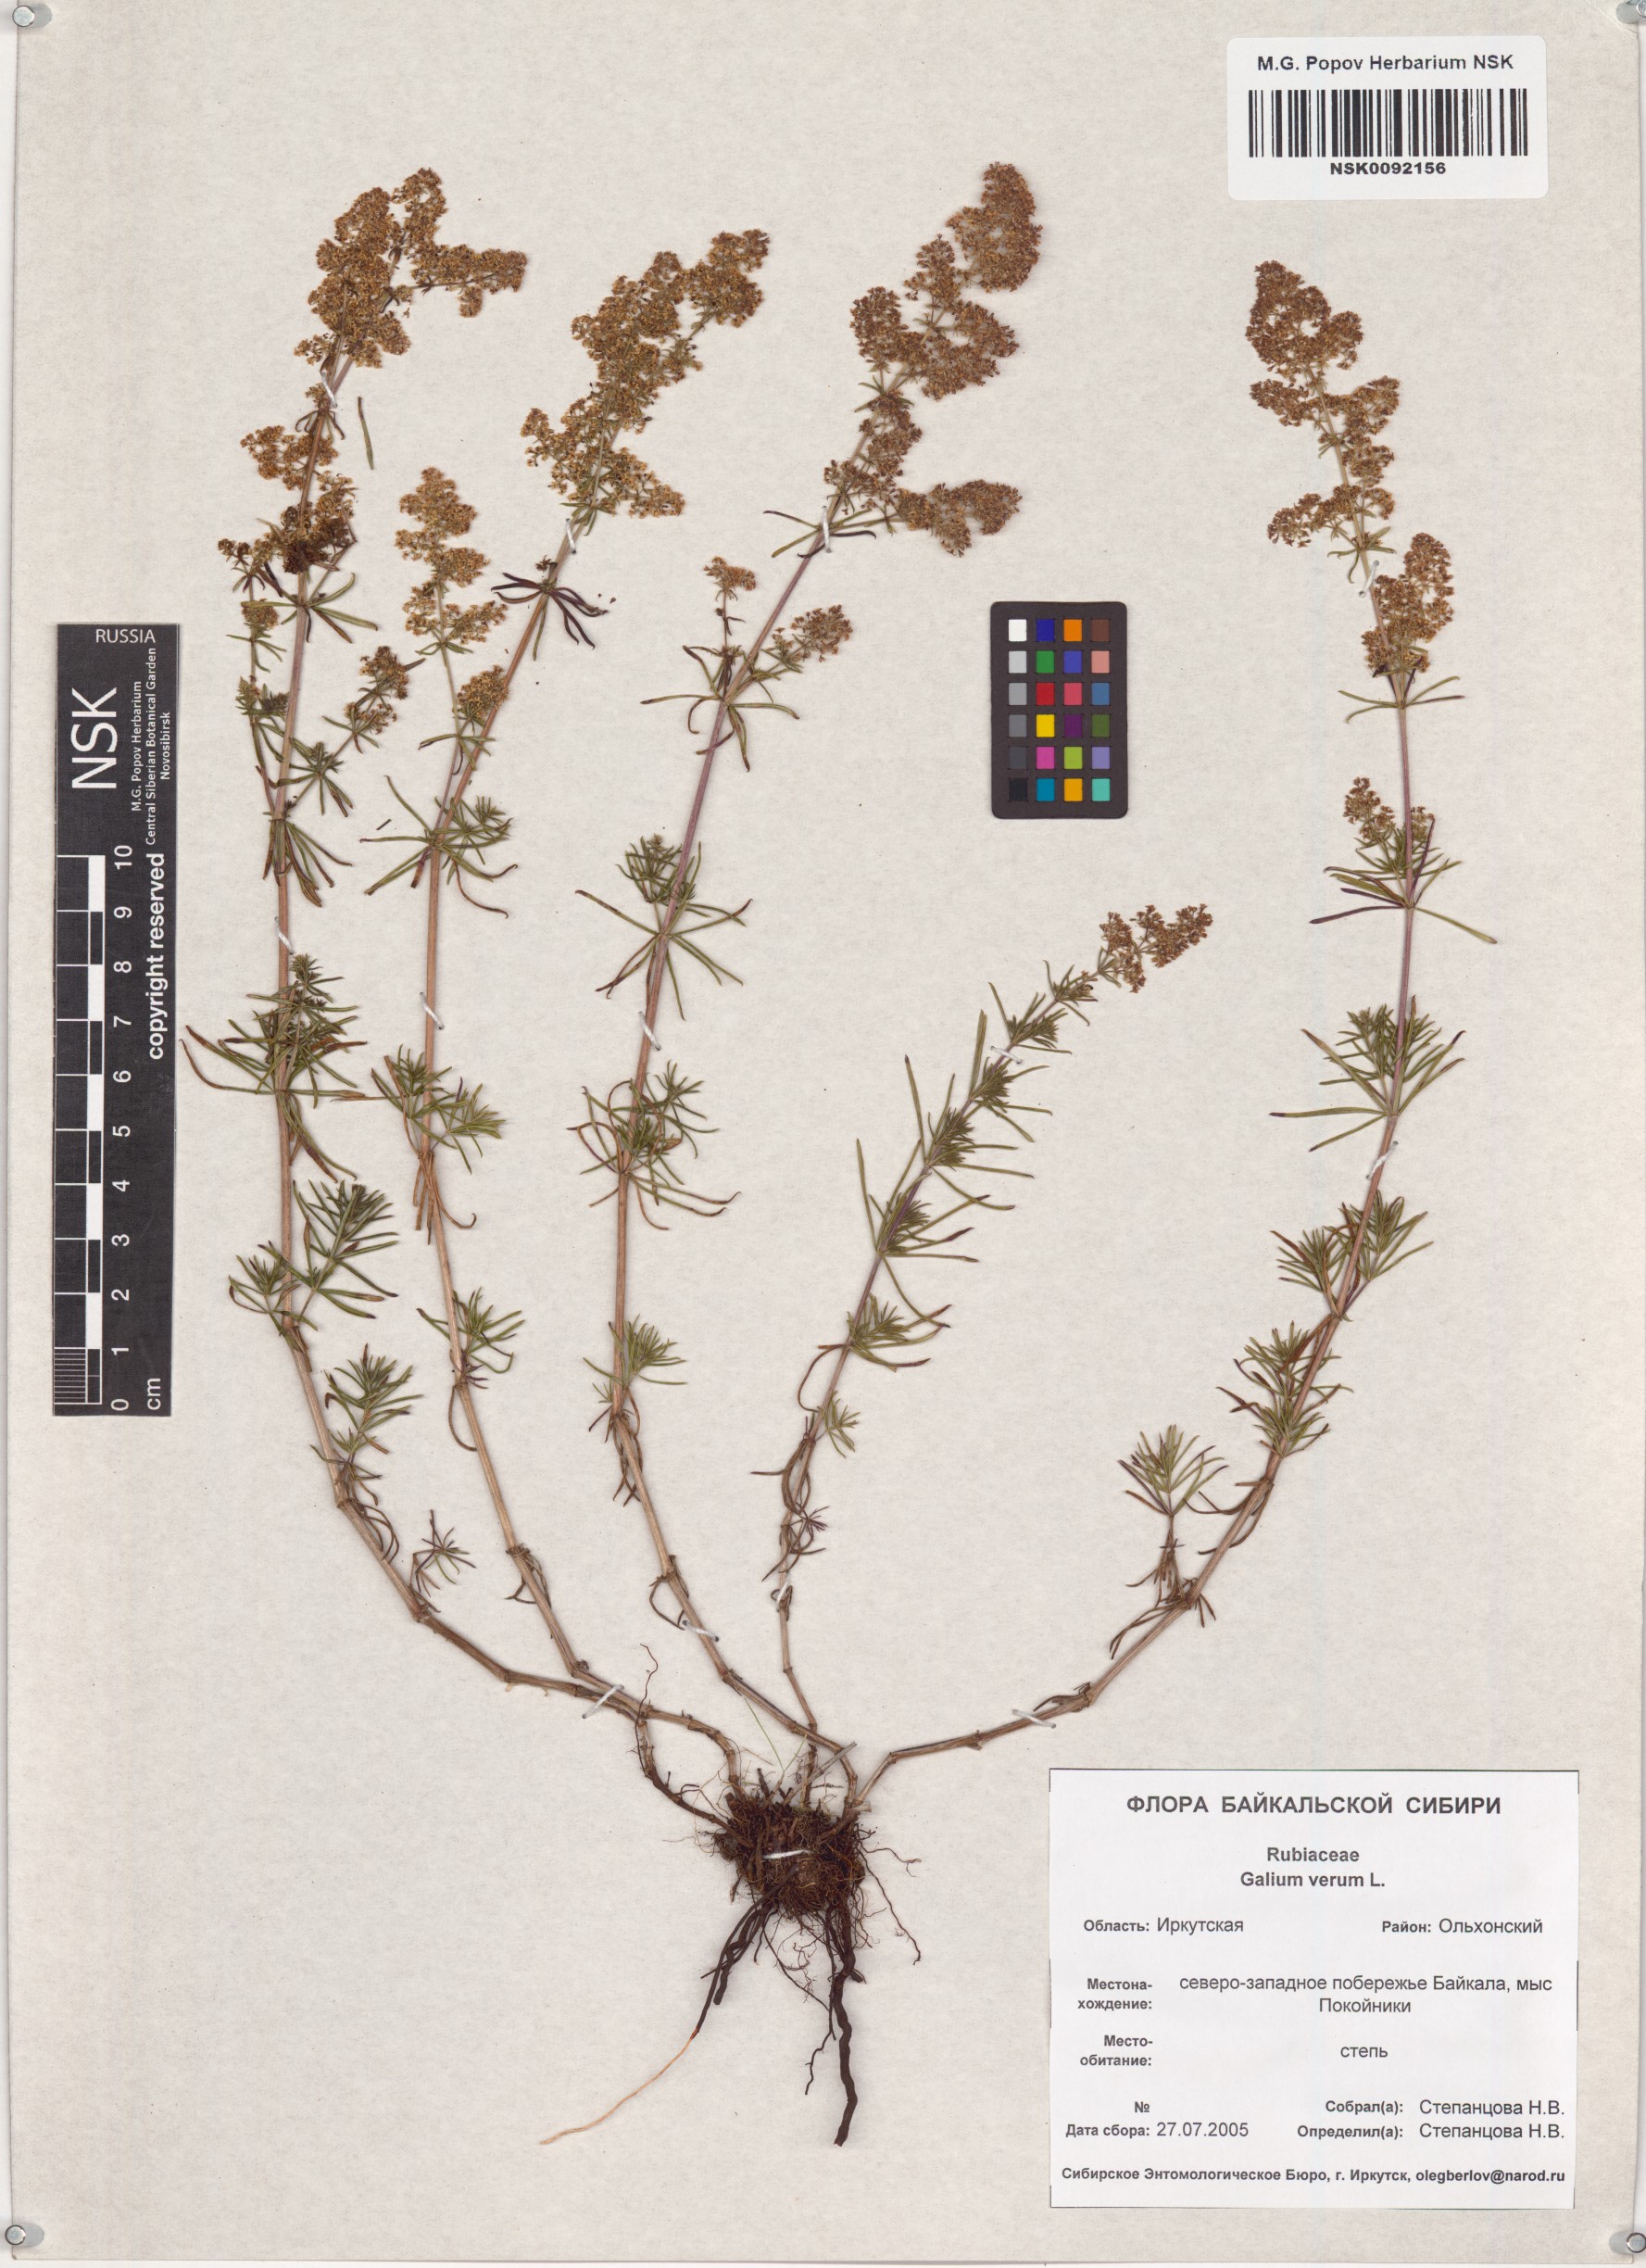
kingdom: Plantae
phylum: Tracheophyta
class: Magnoliopsida
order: Gentianales
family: Rubiaceae
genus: Galium
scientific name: Galium verum
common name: Lady's bedstraw
